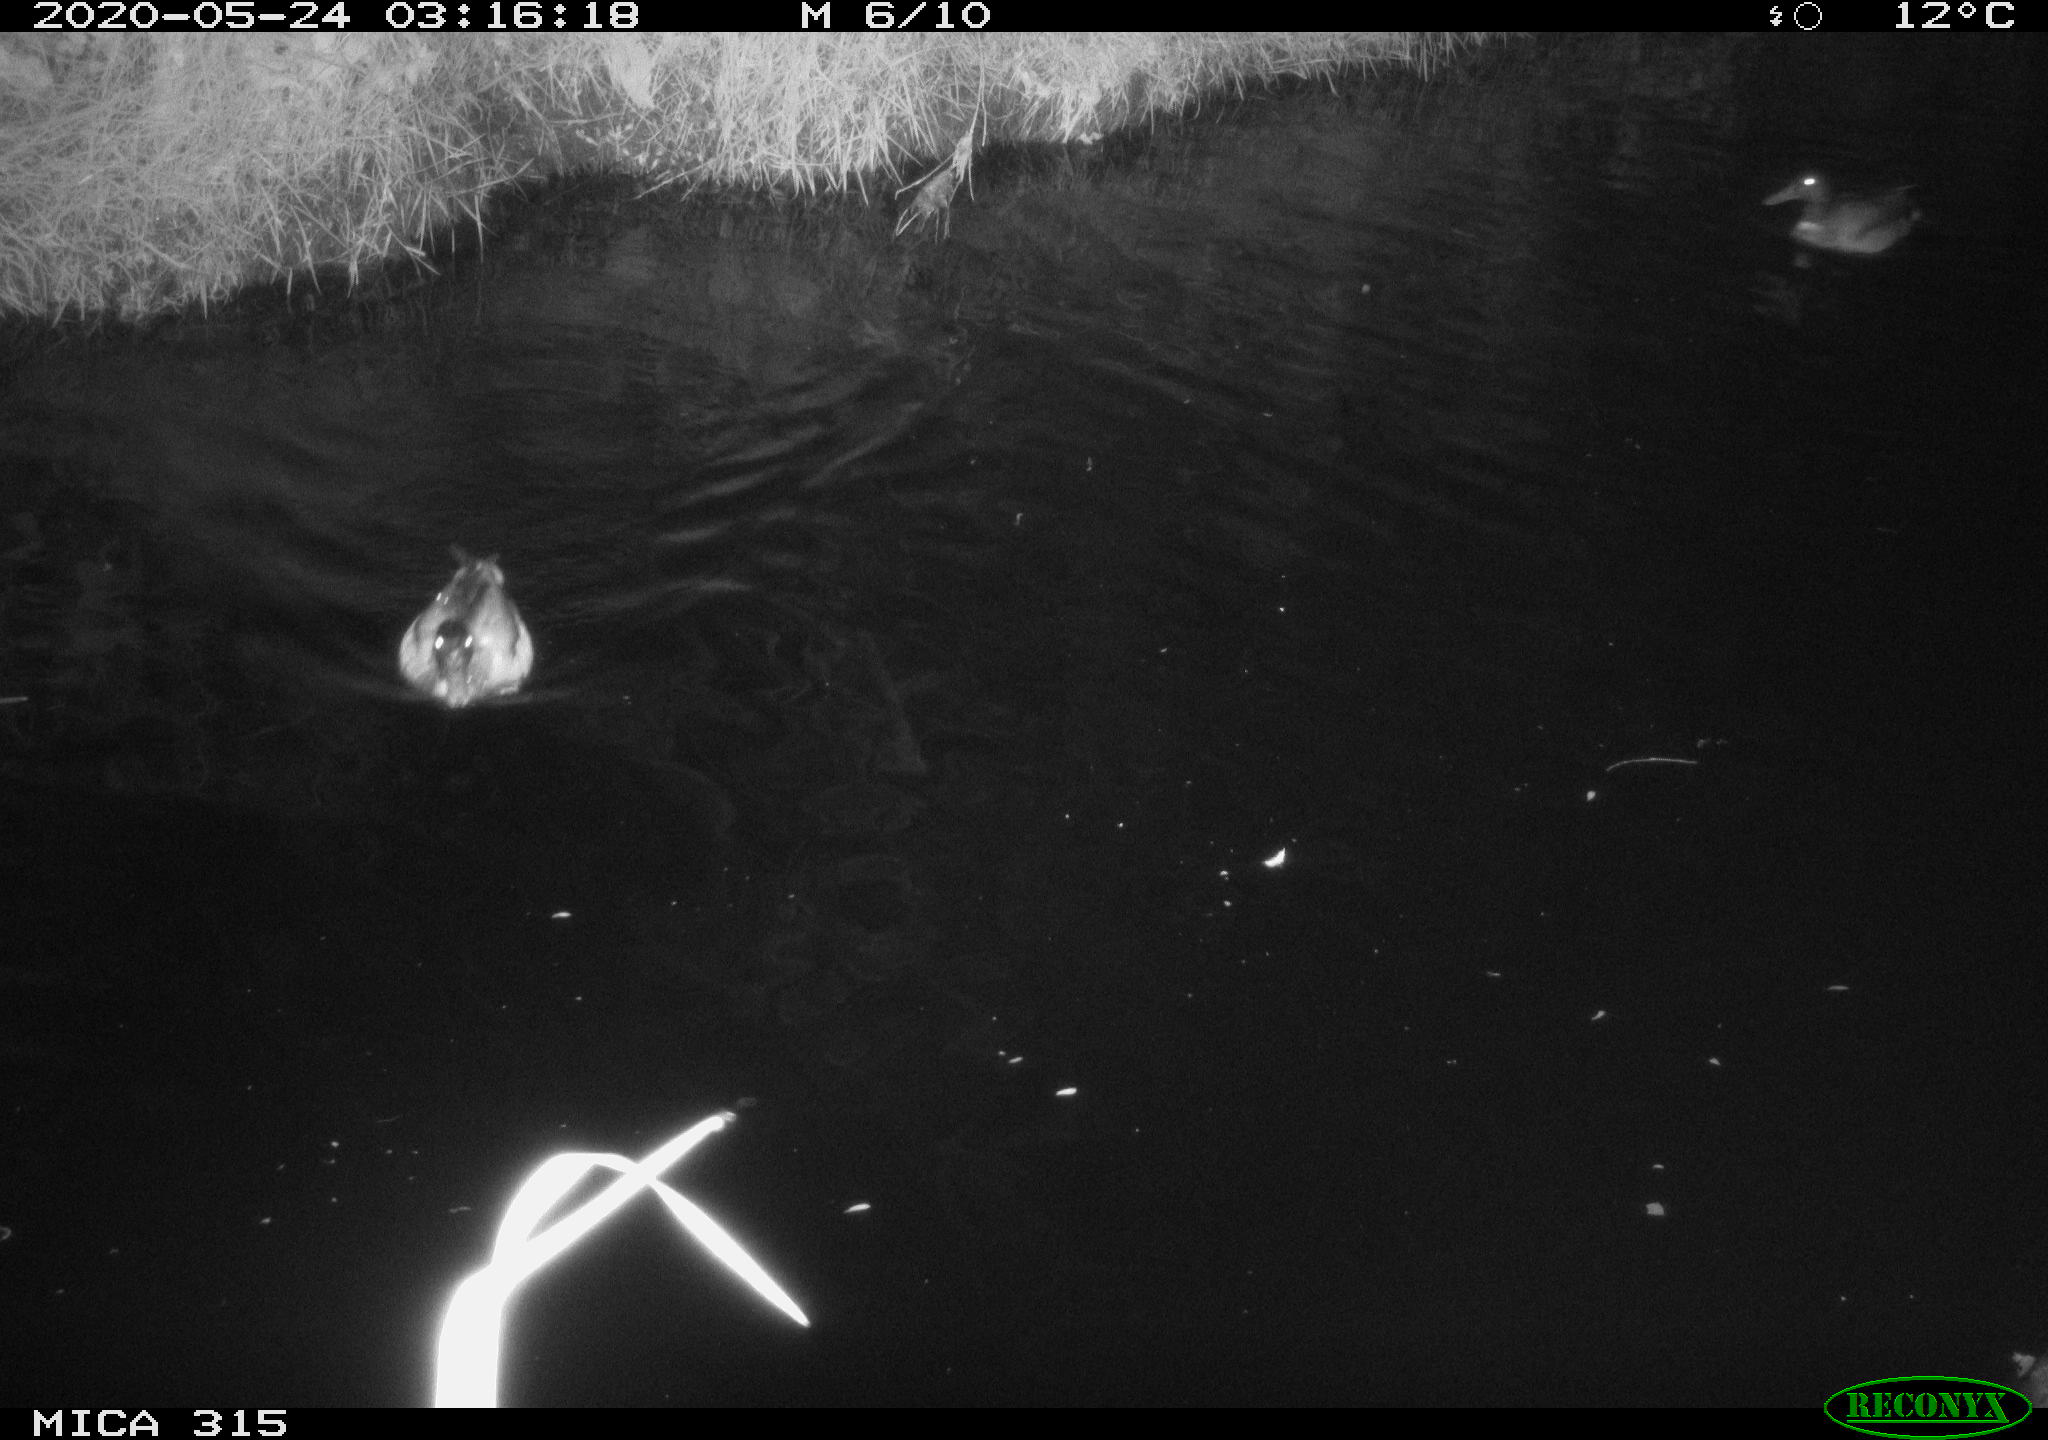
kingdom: Animalia
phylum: Chordata
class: Aves
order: Anseriformes
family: Anatidae
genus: Anas
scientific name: Anas platyrhynchos
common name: Mallard
